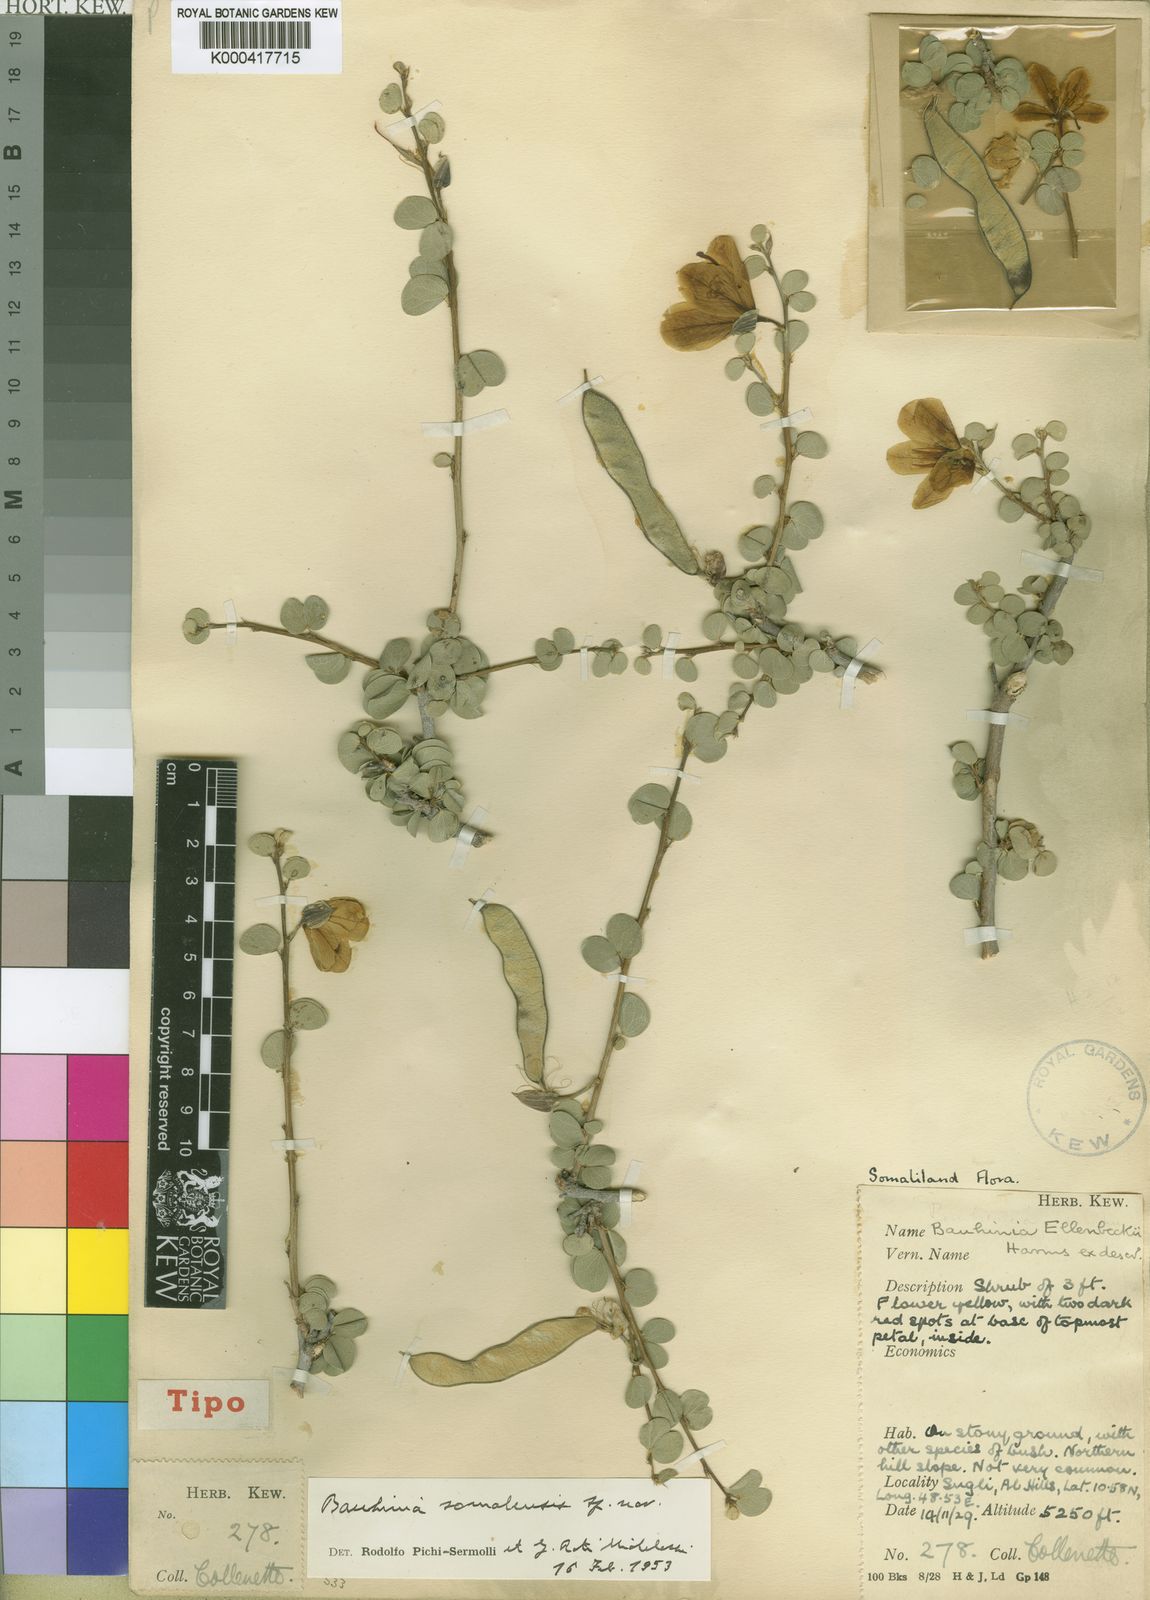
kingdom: Plantae
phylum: Tracheophyta
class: Magnoliopsida
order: Fabales
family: Fabaceae
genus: Bauhinia
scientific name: Bauhinia ellenbeckii
